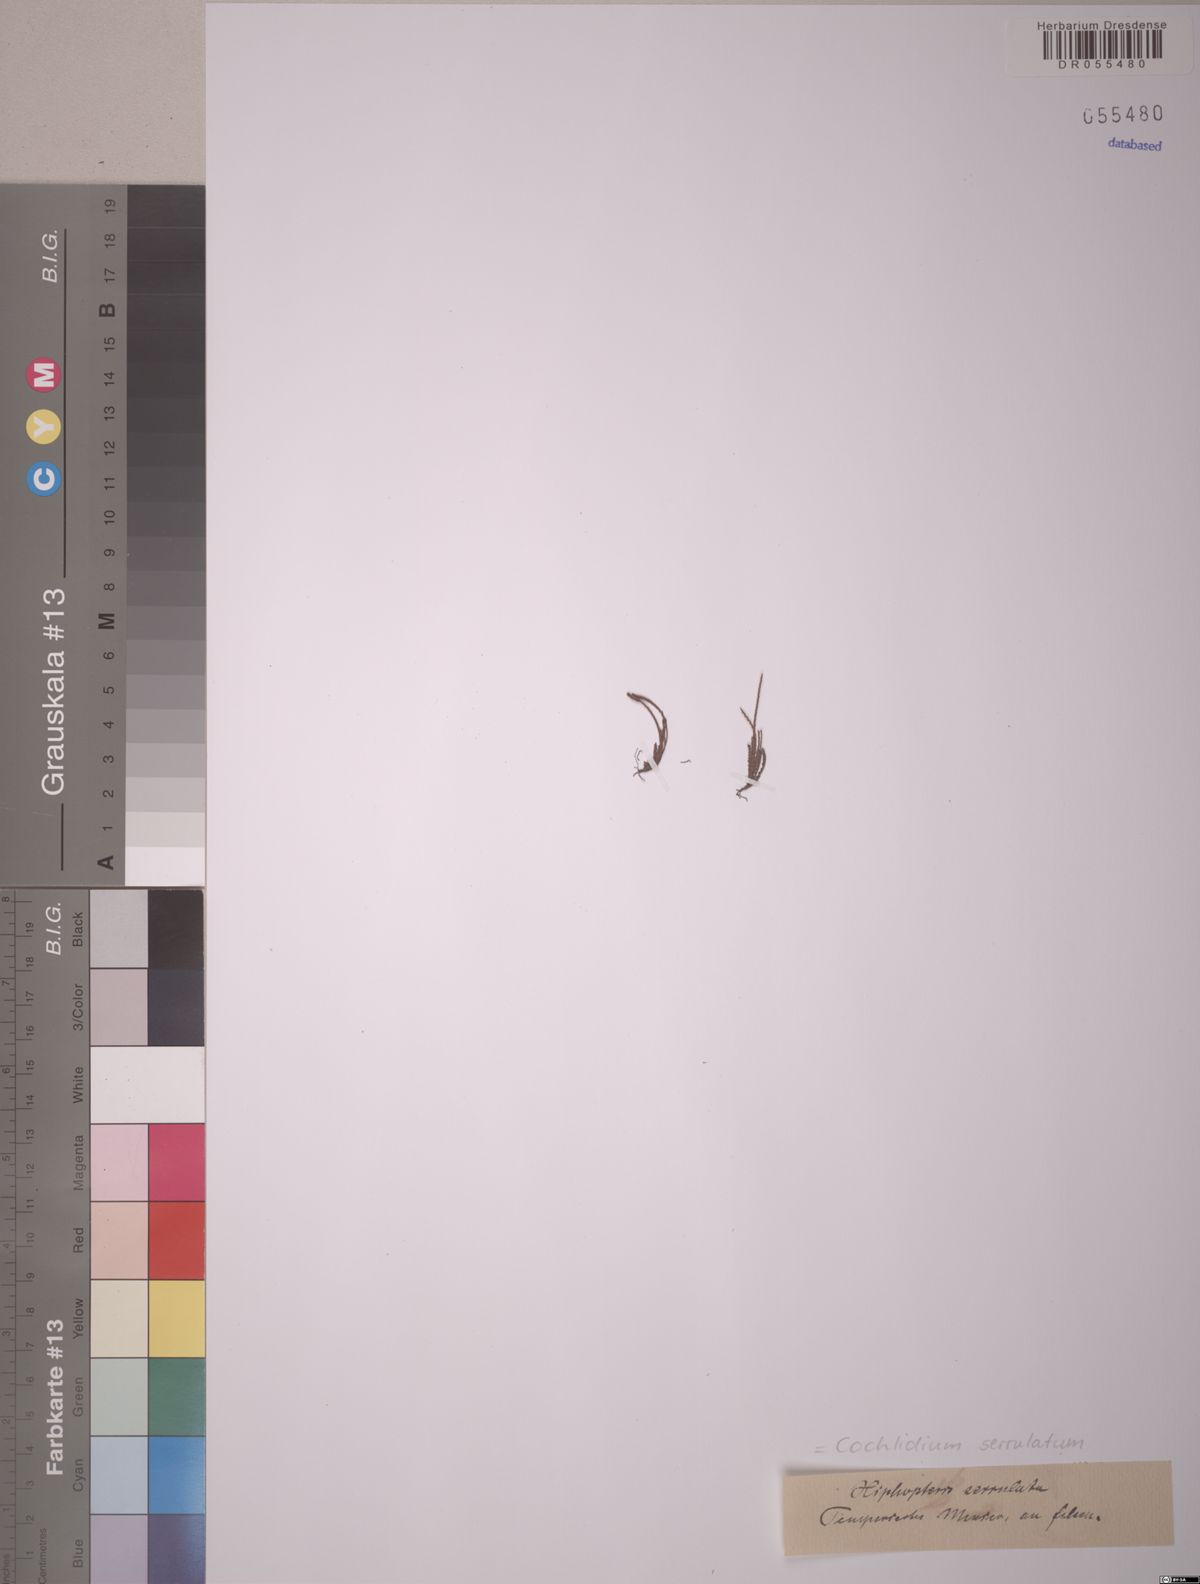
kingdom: Plantae
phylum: Tracheophyta
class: Polypodiopsida
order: Polypodiales
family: Polypodiaceae
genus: Cochlidium
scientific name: Cochlidium serrulatum
